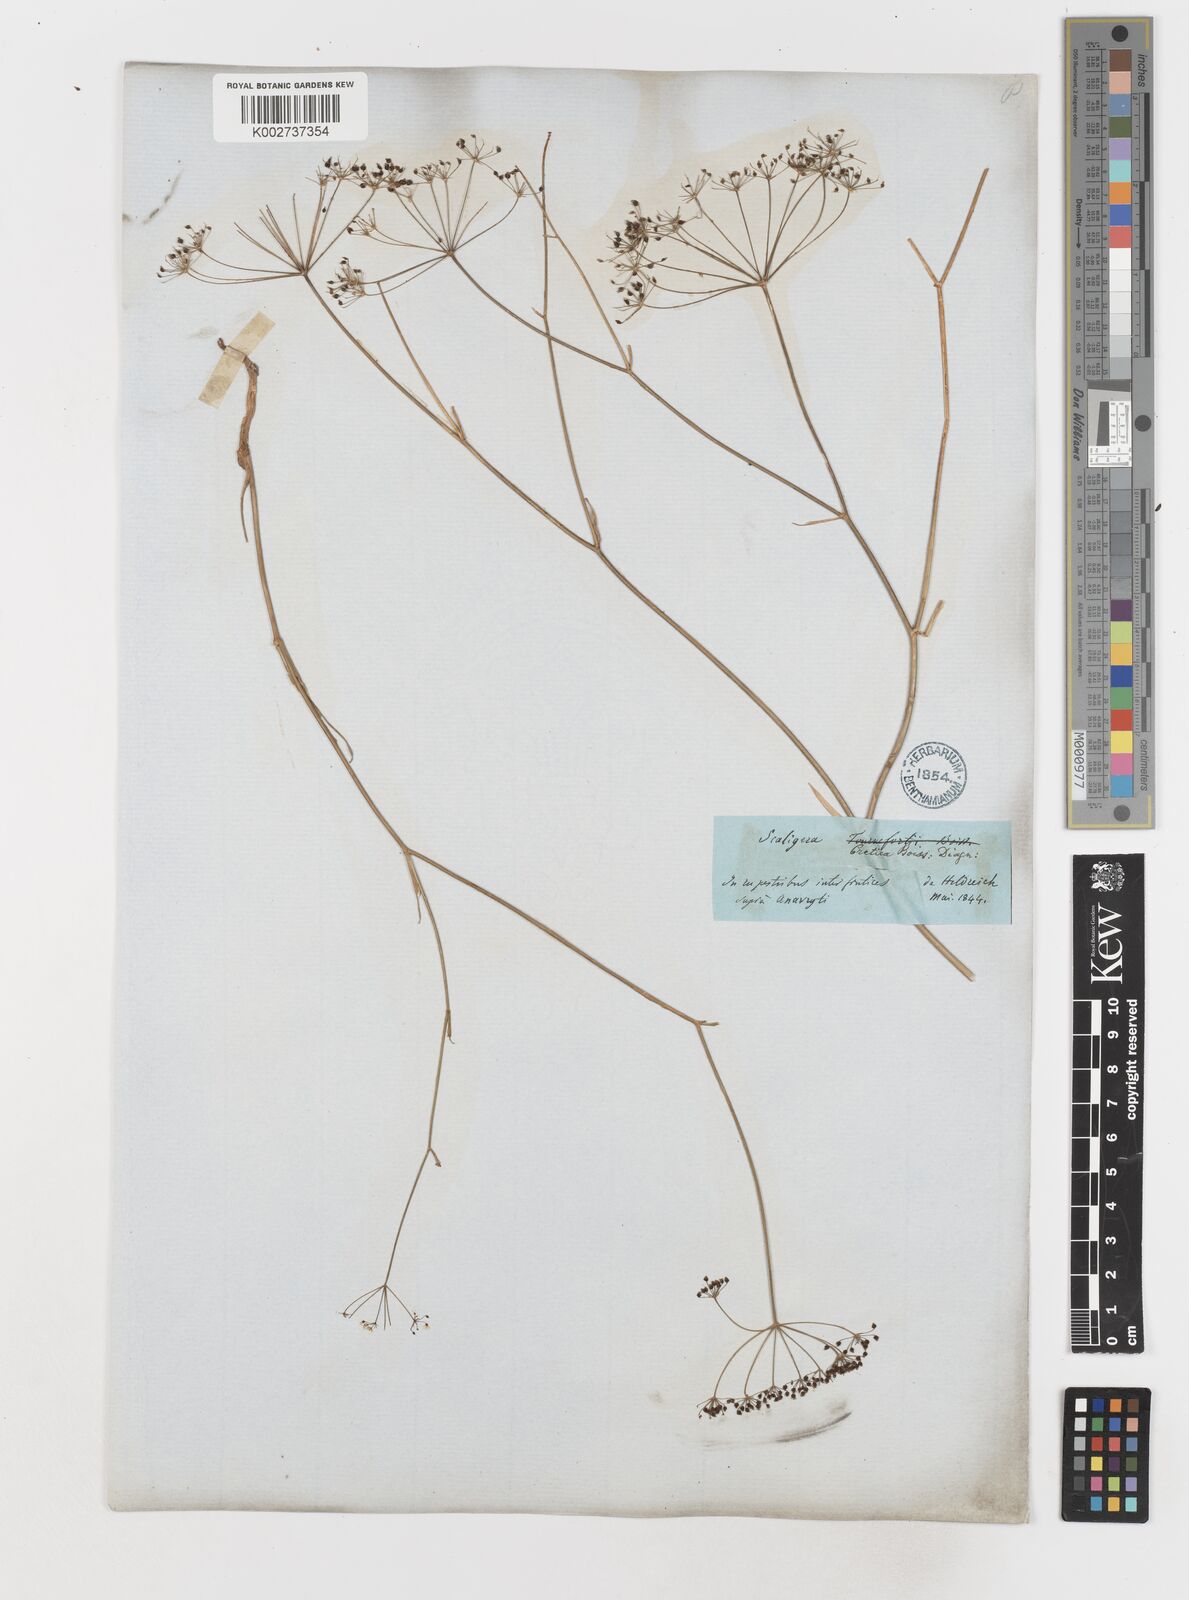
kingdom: Plantae
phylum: Tracheophyta
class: Magnoliopsida
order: Apiales
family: Apiaceae
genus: Scaligeria
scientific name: Scaligeria napiformis
